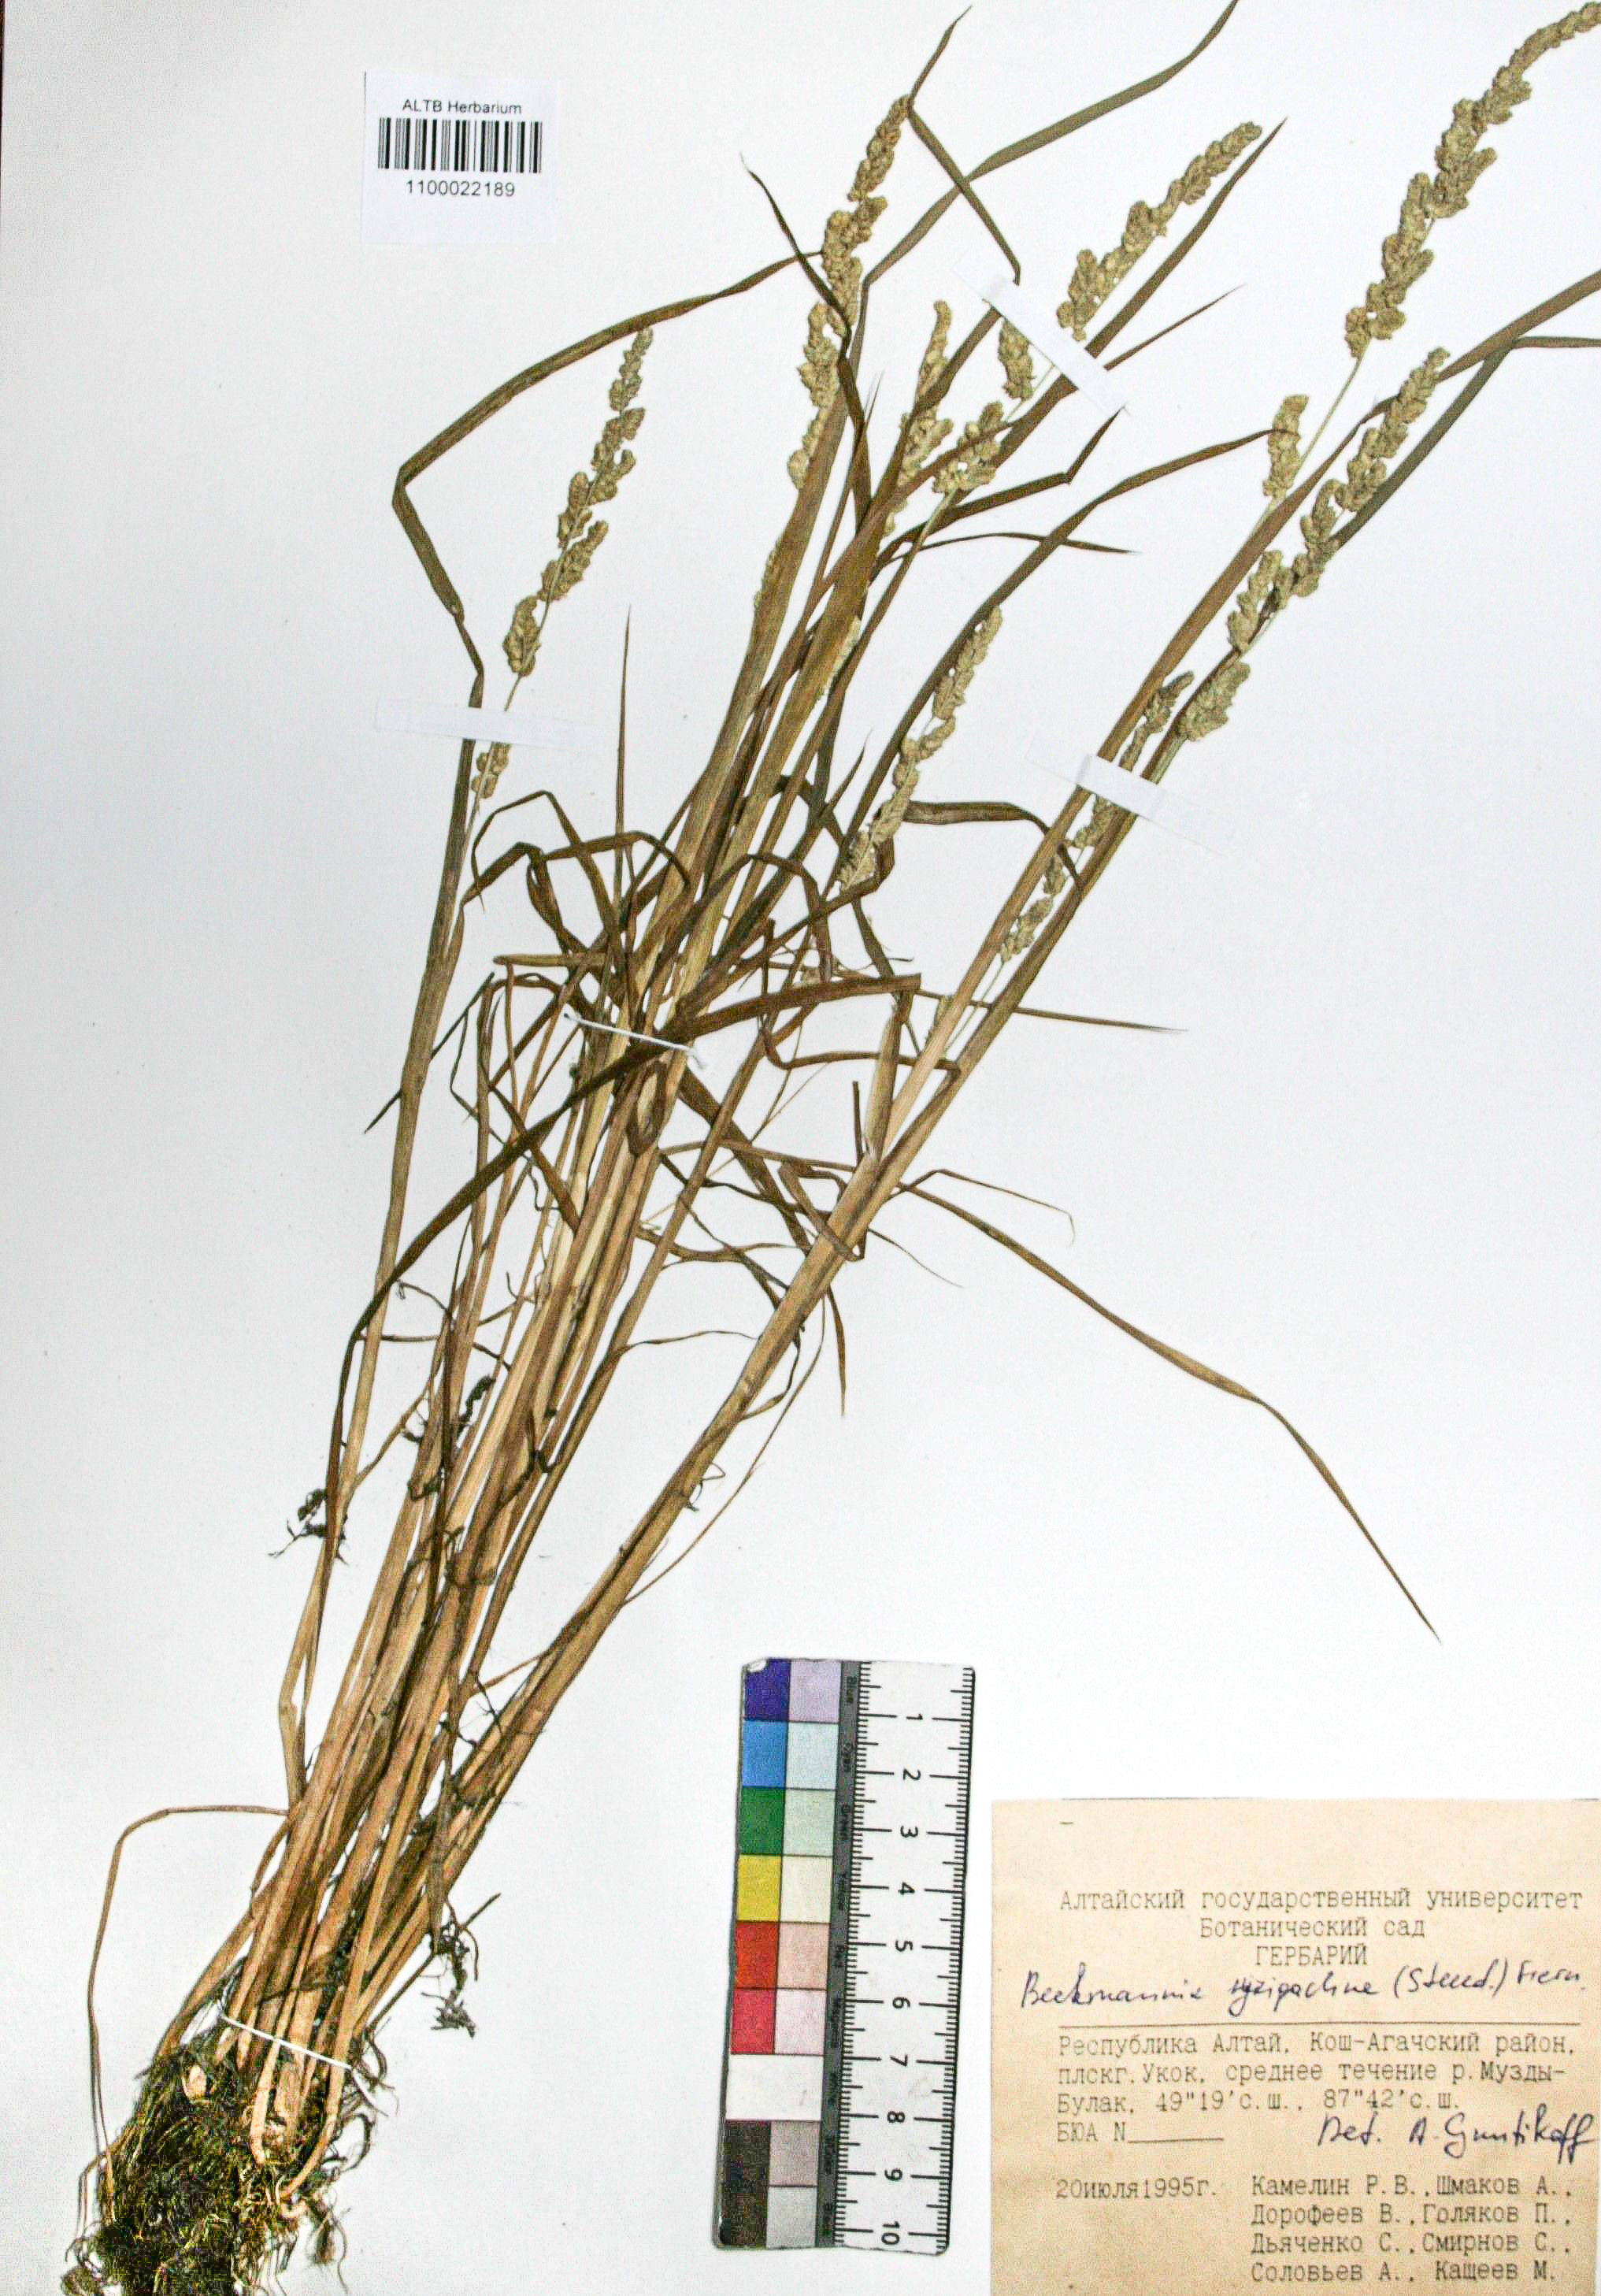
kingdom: Plantae
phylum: Tracheophyta
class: Liliopsida
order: Poales
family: Poaceae
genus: Beckmannia
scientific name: Beckmannia syzigachne
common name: American slough-grass
